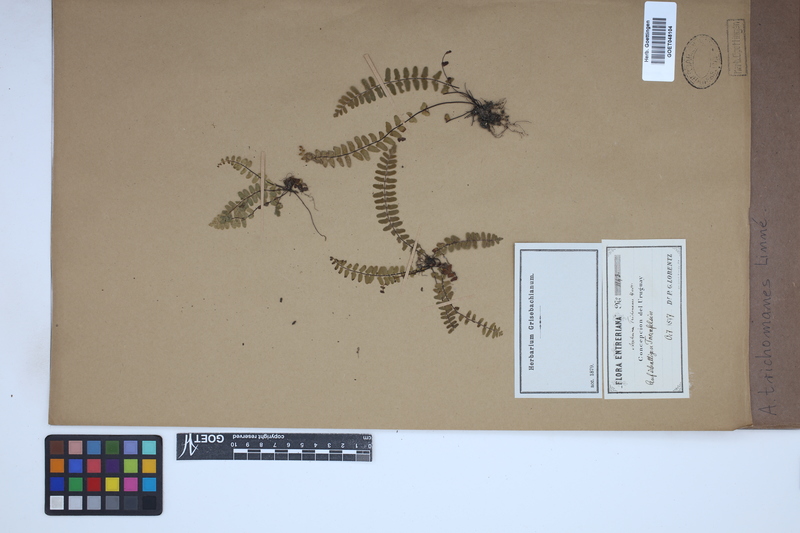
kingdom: Plantae
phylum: Tracheophyta
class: Polypodiopsida
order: Polypodiales
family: Aspleniaceae
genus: Asplenium
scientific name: Asplenium trichomanes
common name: Maidenhair spleenwort
